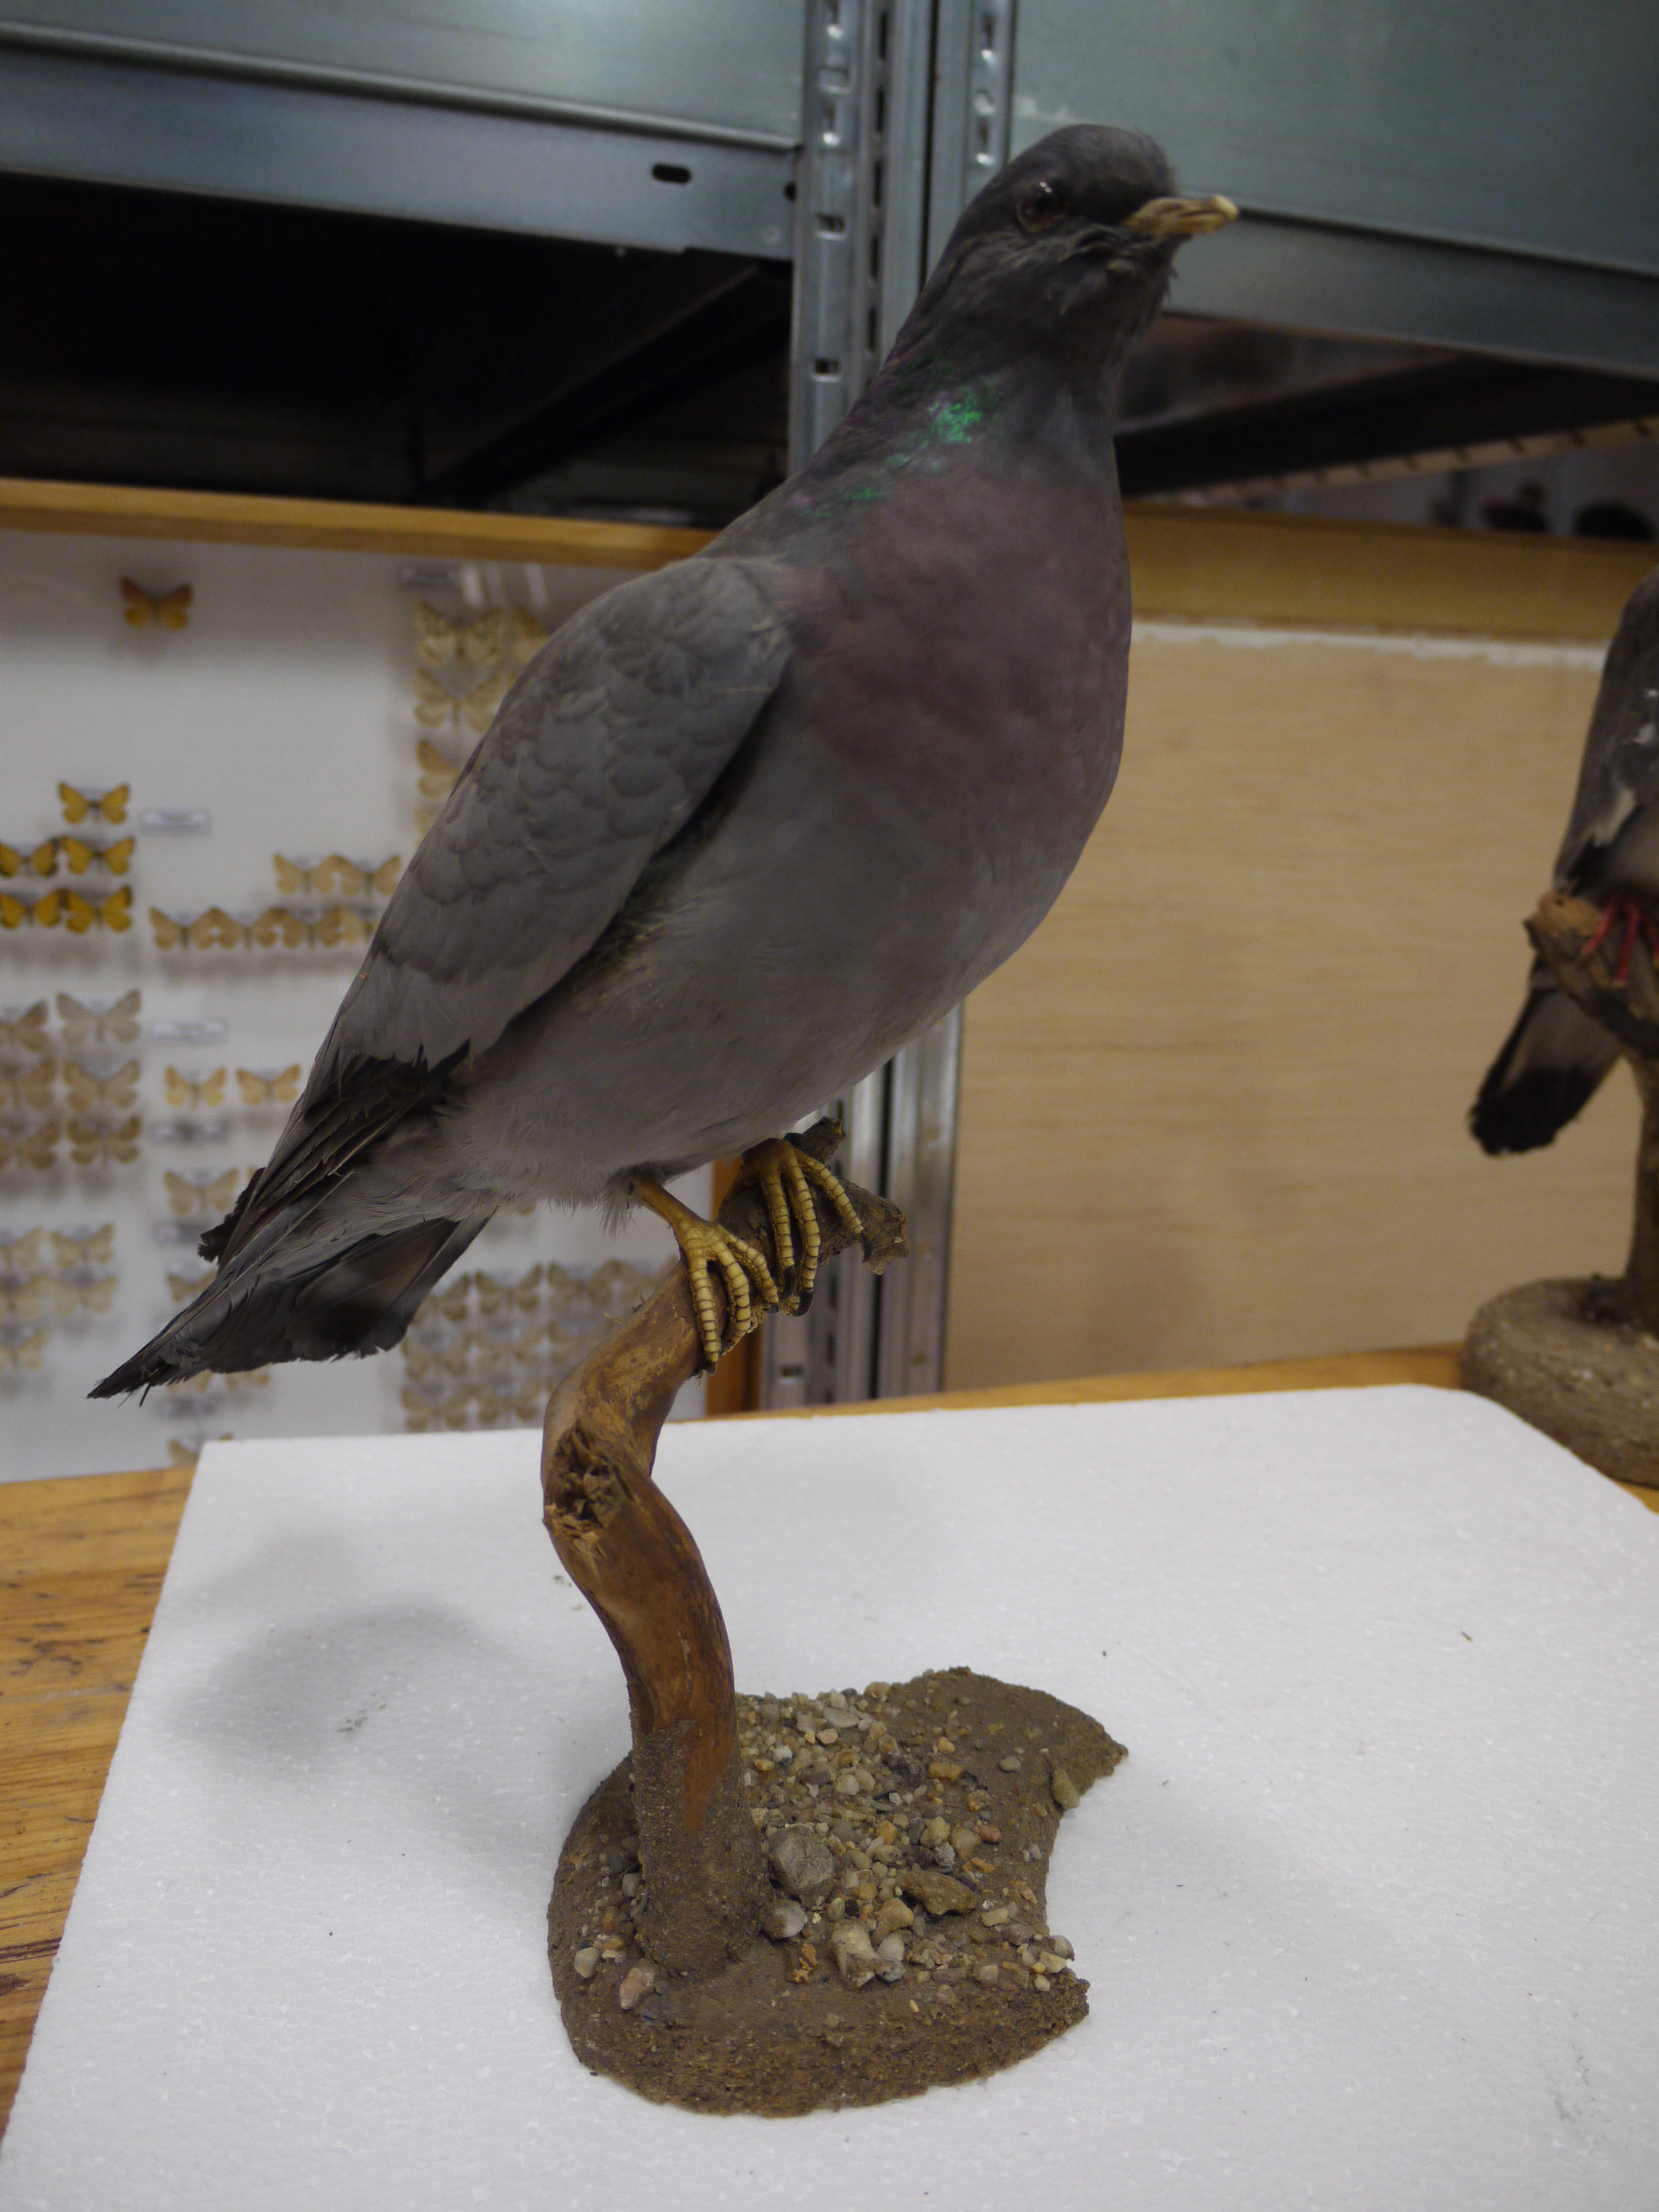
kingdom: Animalia
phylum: Chordata
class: Aves
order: Columbiformes
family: Columbidae
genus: Columba
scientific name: Columba oenas
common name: Stock dove
